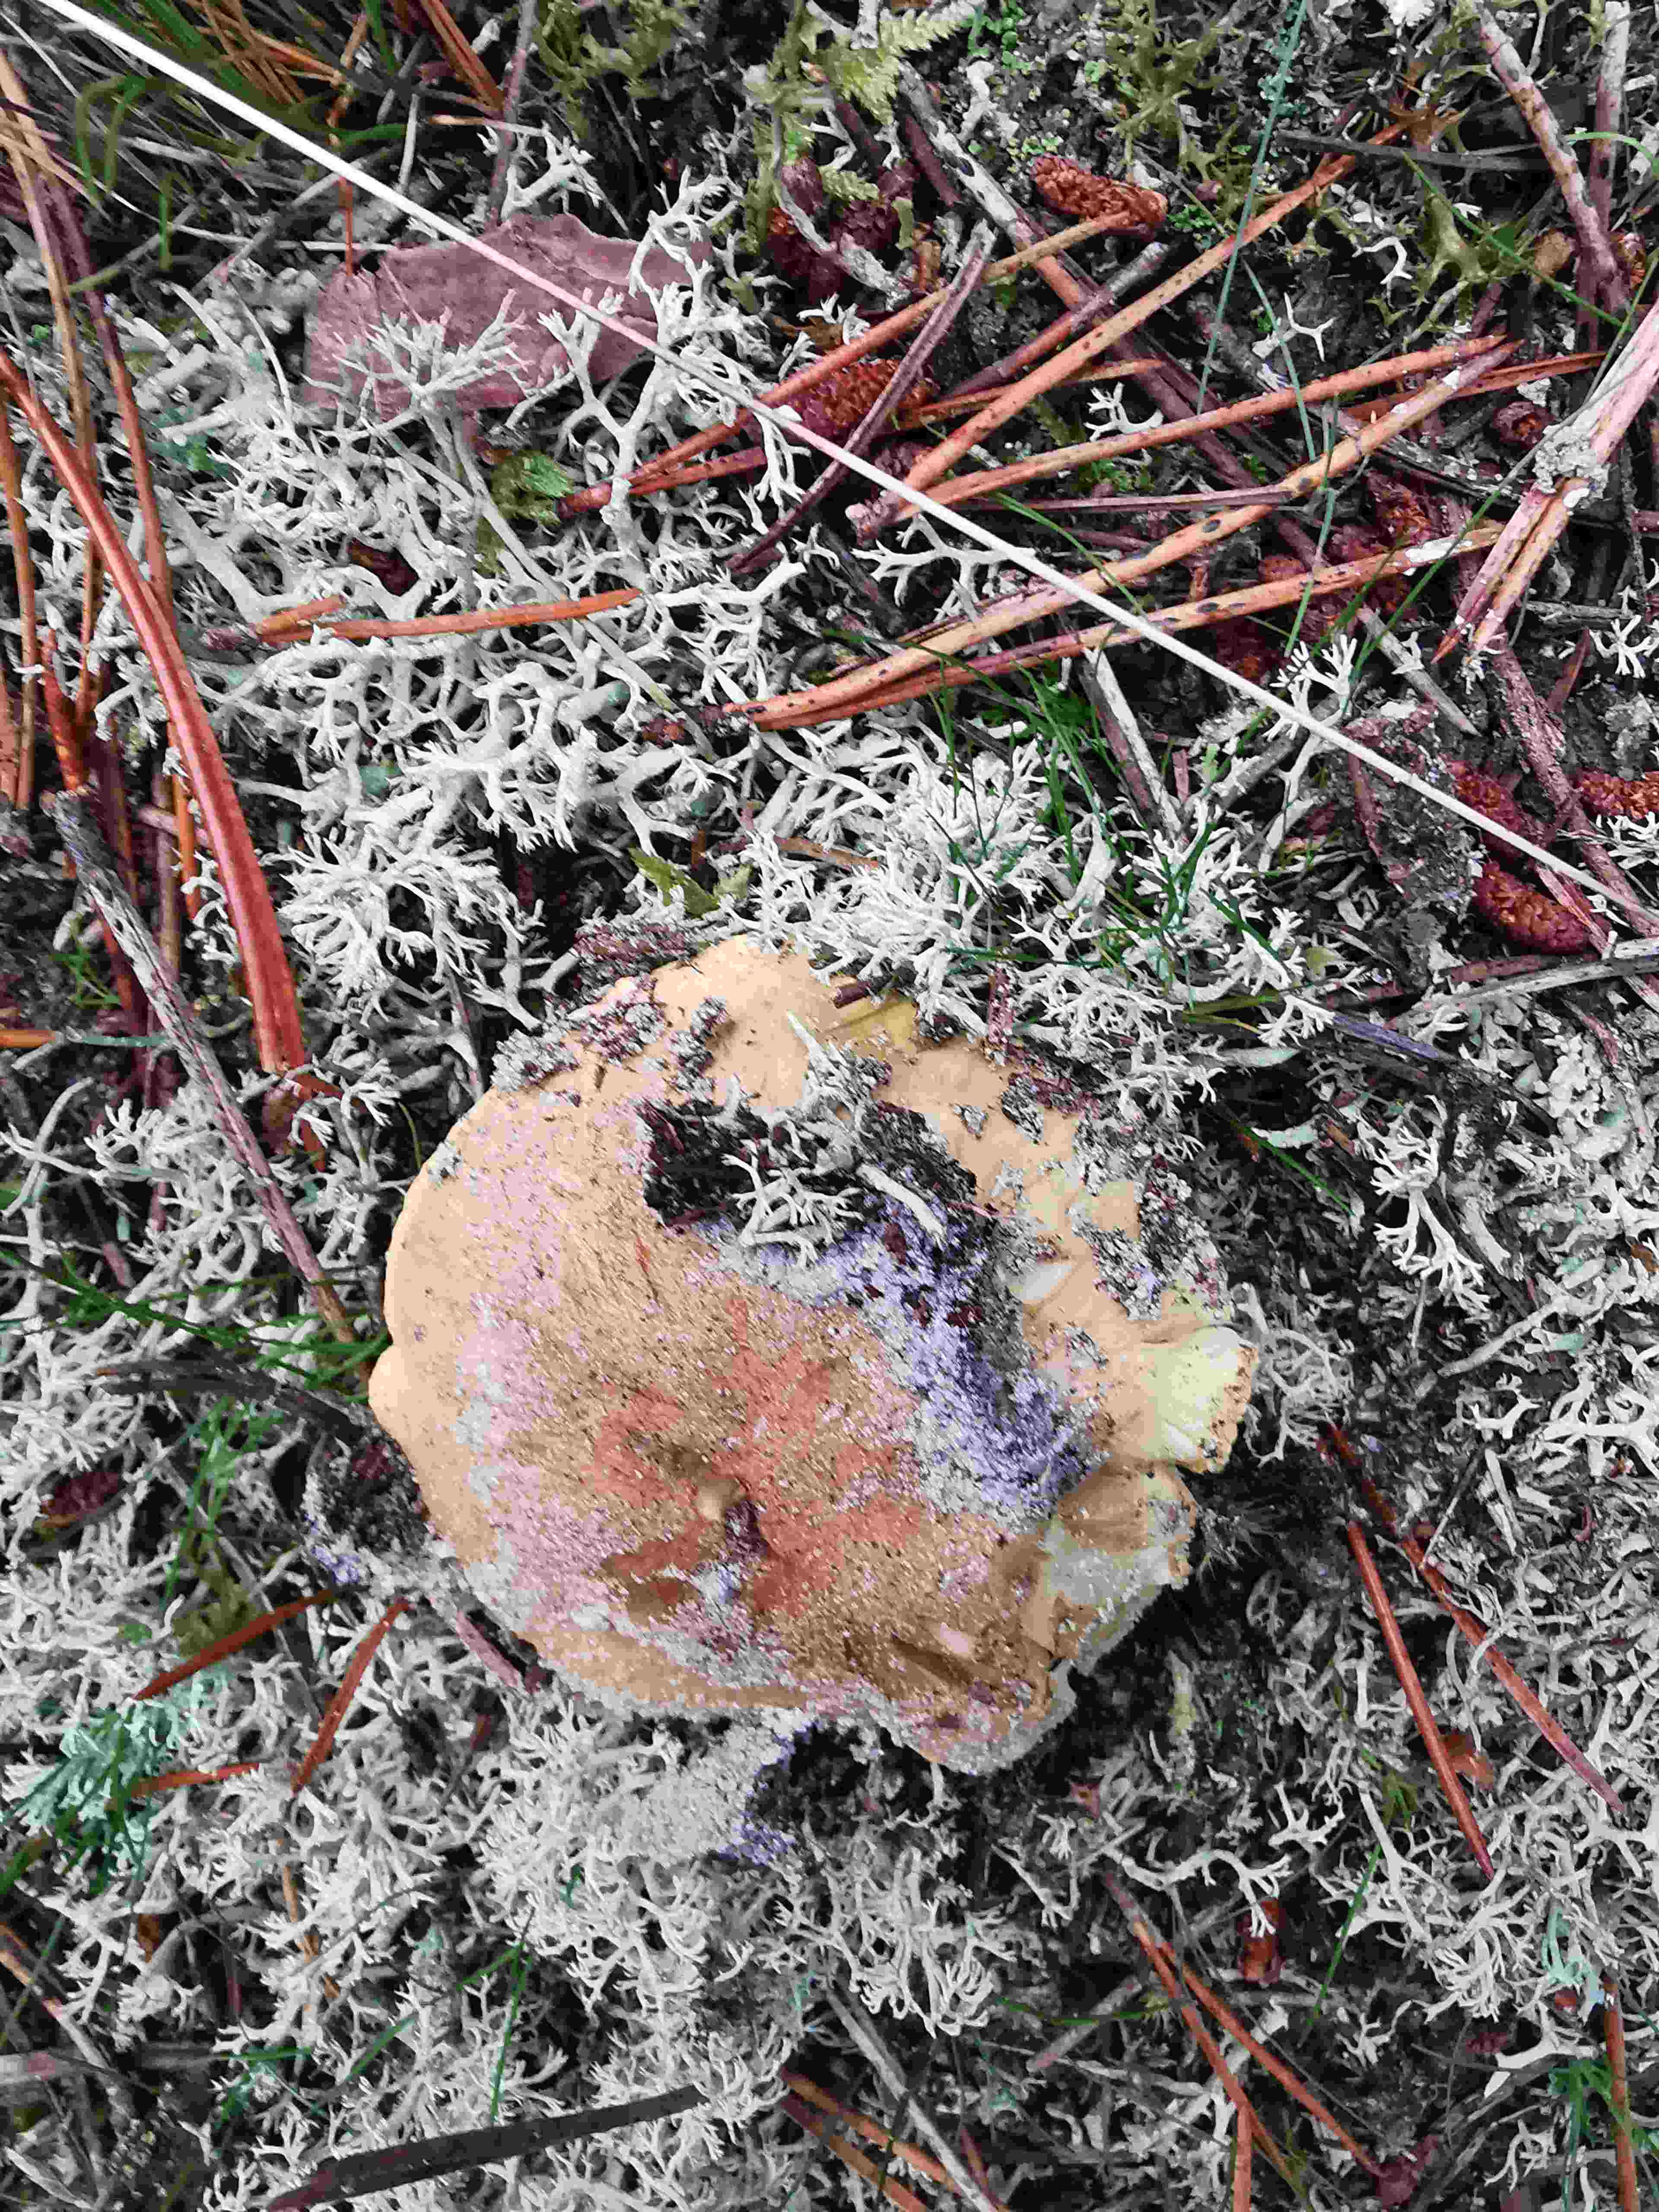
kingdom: Fungi
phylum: Basidiomycota
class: Agaricomycetes
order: Agaricales
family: Tricholomataceae
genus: Tricholoma
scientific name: Tricholoma equestre
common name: ægte ridderhat
